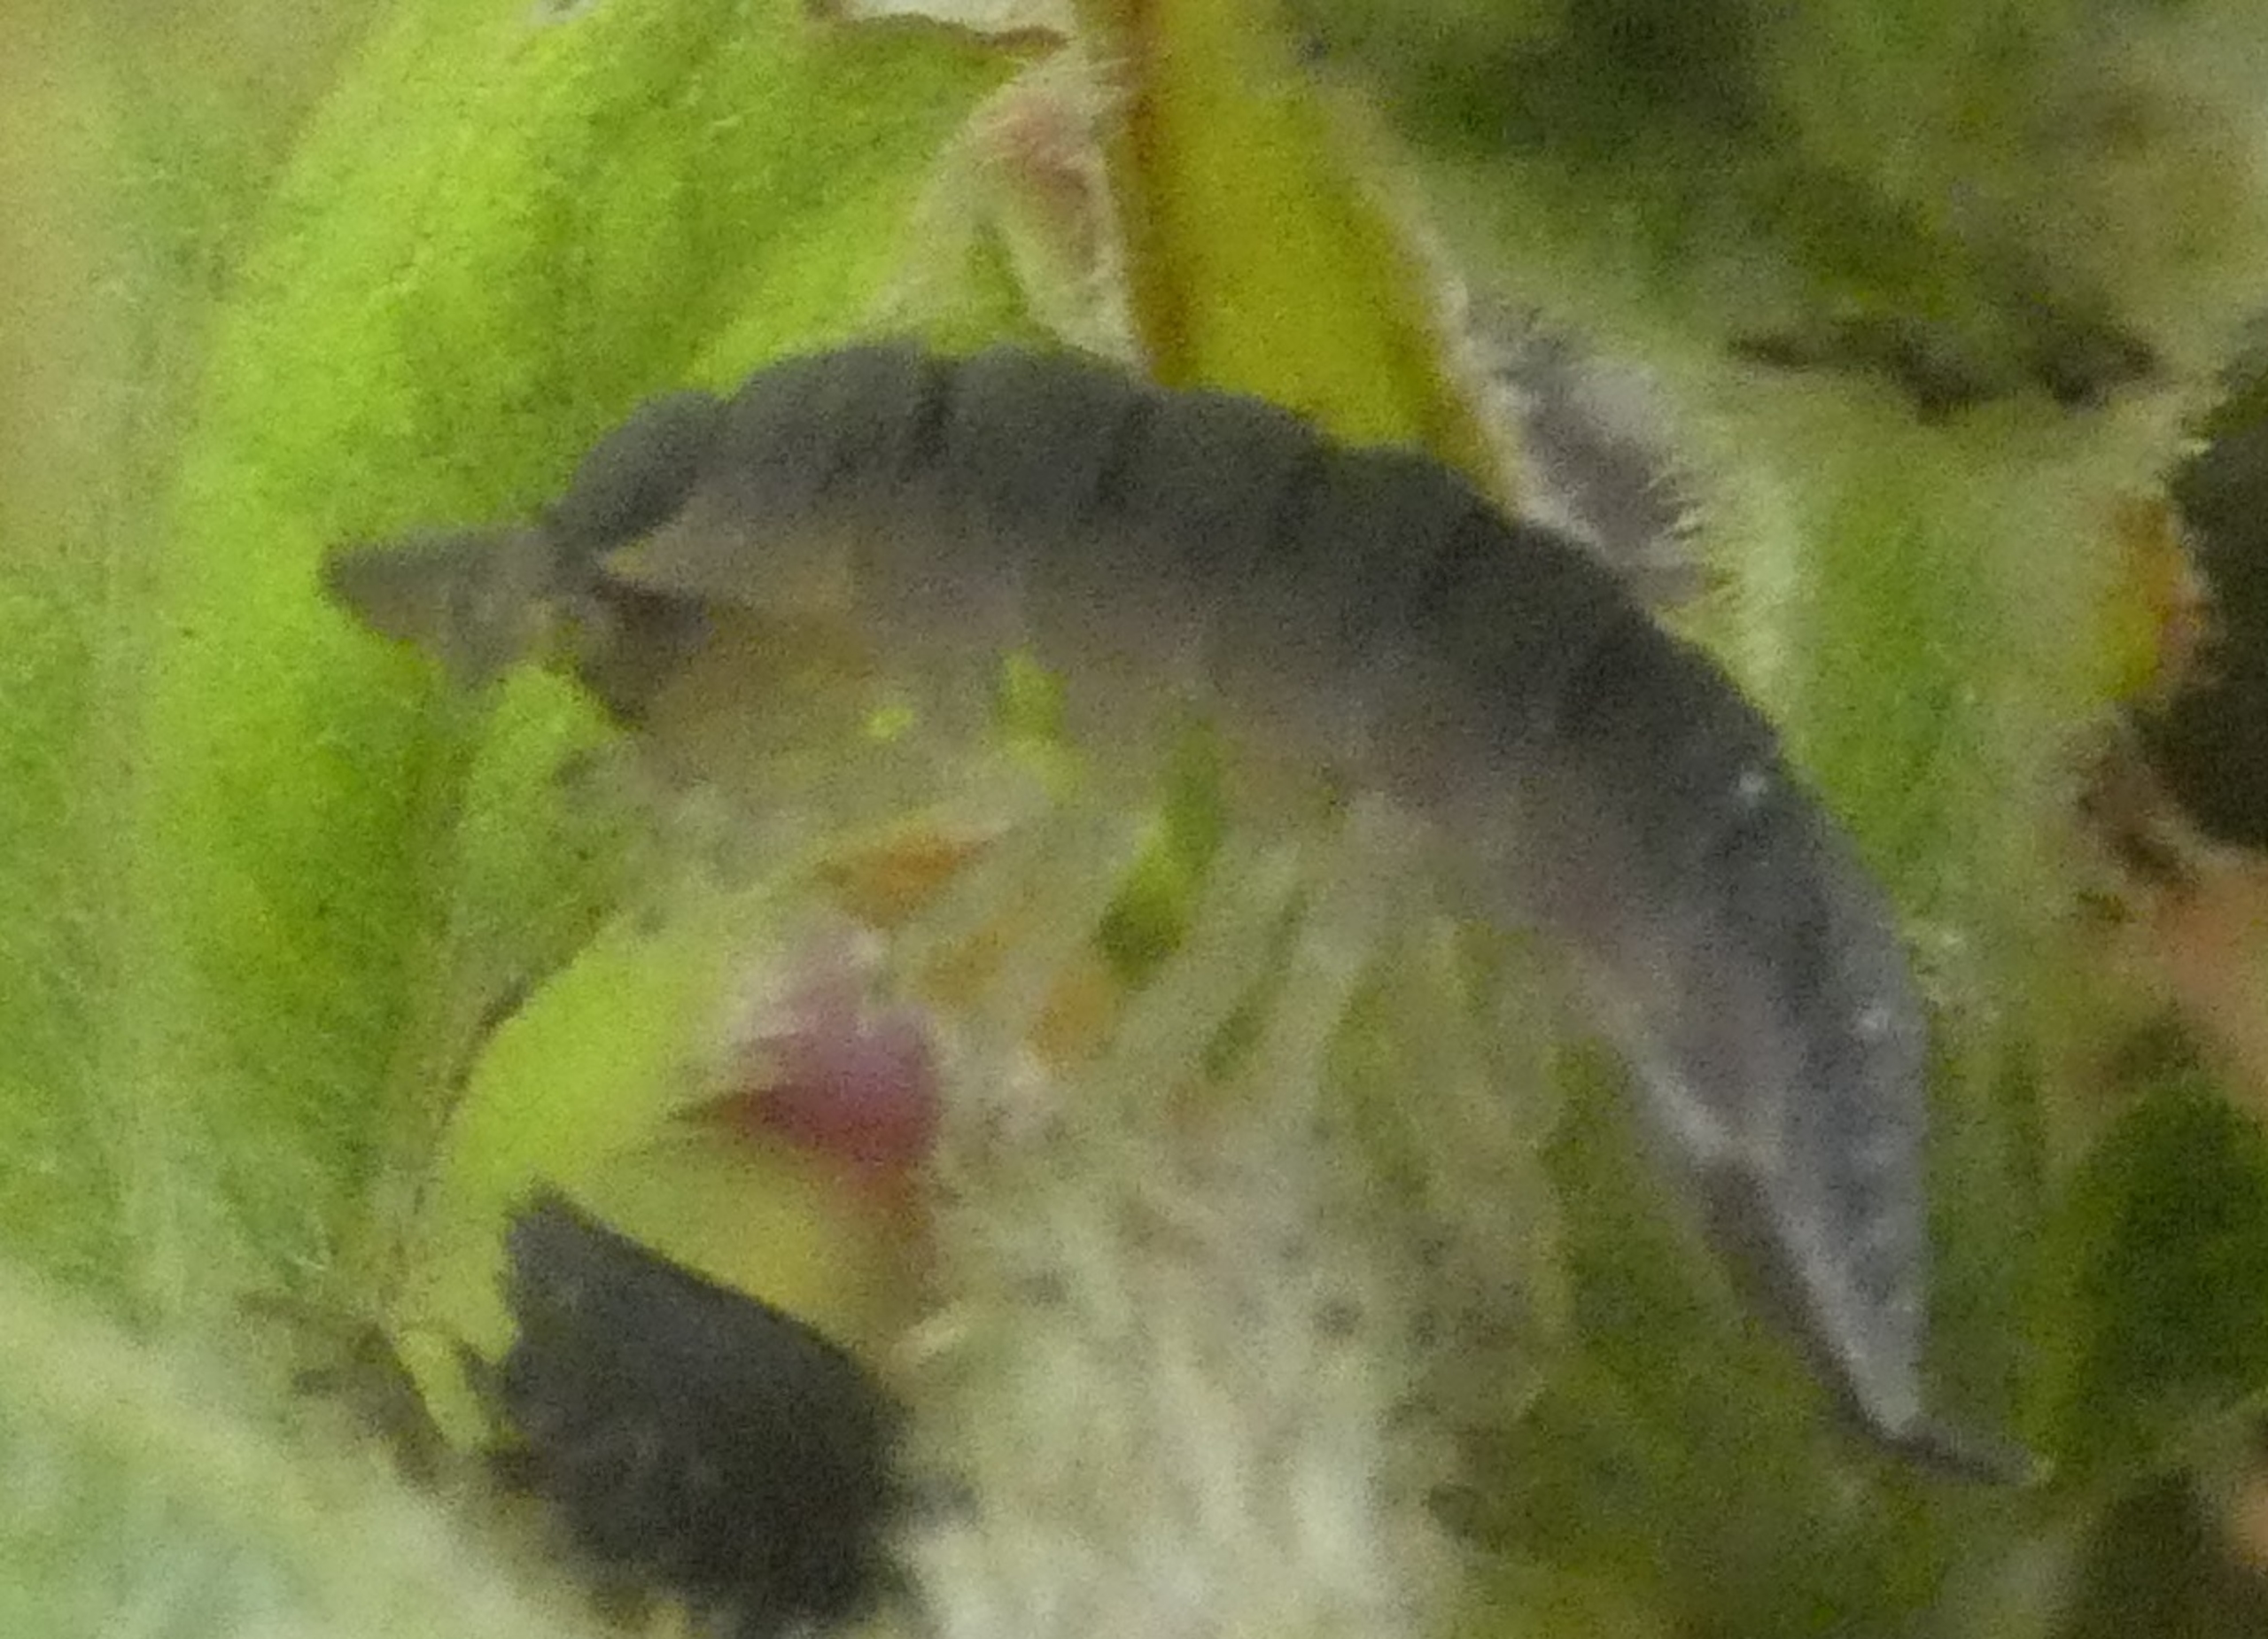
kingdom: Animalia
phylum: Arthropoda
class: Malacostraca
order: Isopoda
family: Porcellionidae
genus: Porcellio
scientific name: Porcellio scaber
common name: Grå bænkebider
